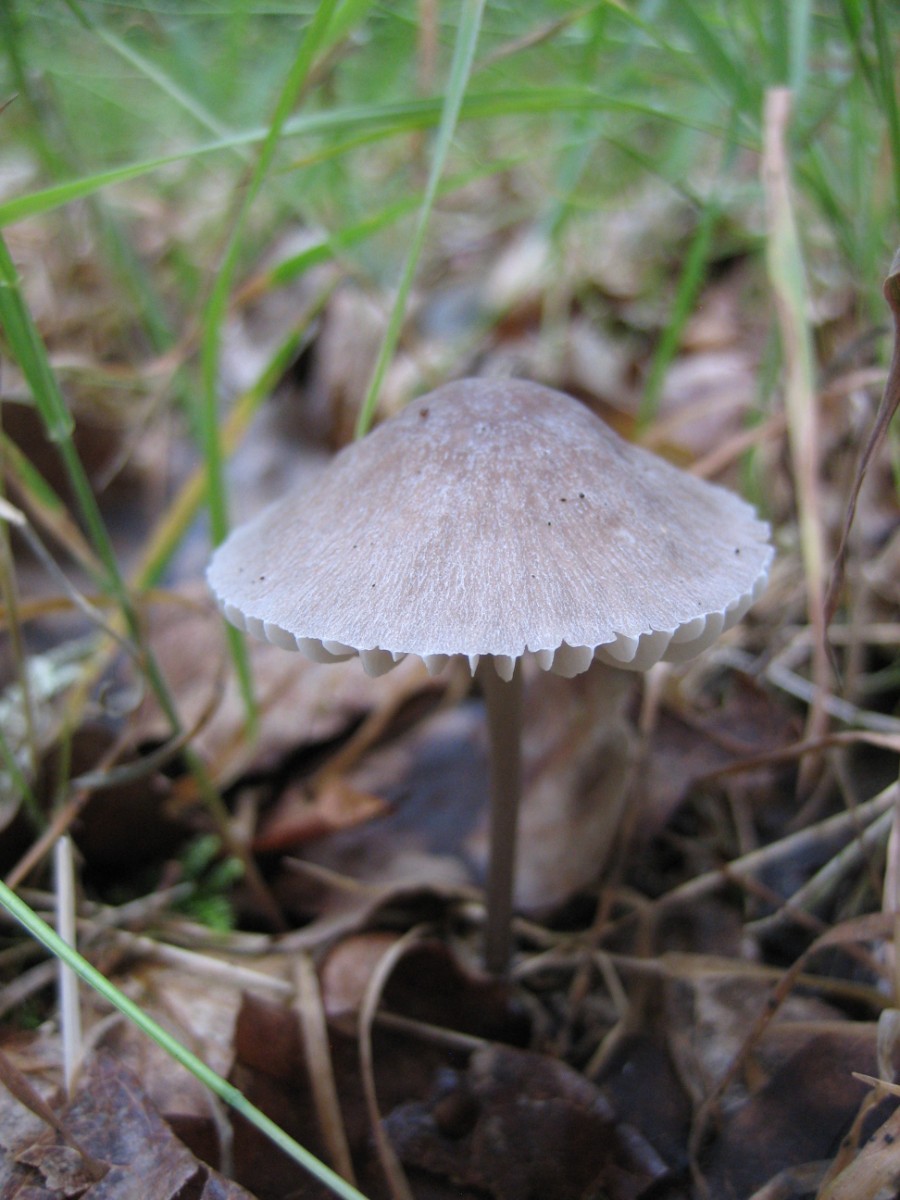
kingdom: Fungi
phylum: Basidiomycota
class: Agaricomycetes
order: Agaricales
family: Mycenaceae
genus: Mycena
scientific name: Mycena
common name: huesvamp
